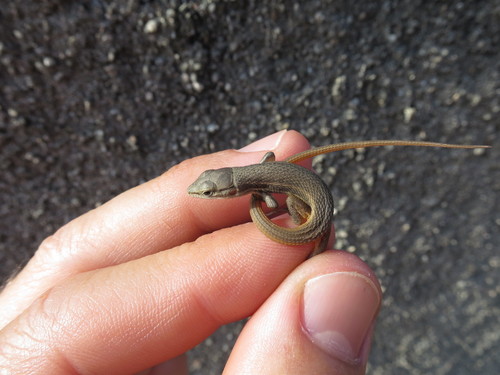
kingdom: Animalia
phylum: Chordata
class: Squamata
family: Lacertidae
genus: Psammodromus
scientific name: Psammodromus algirus
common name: Algerian psammodromus
